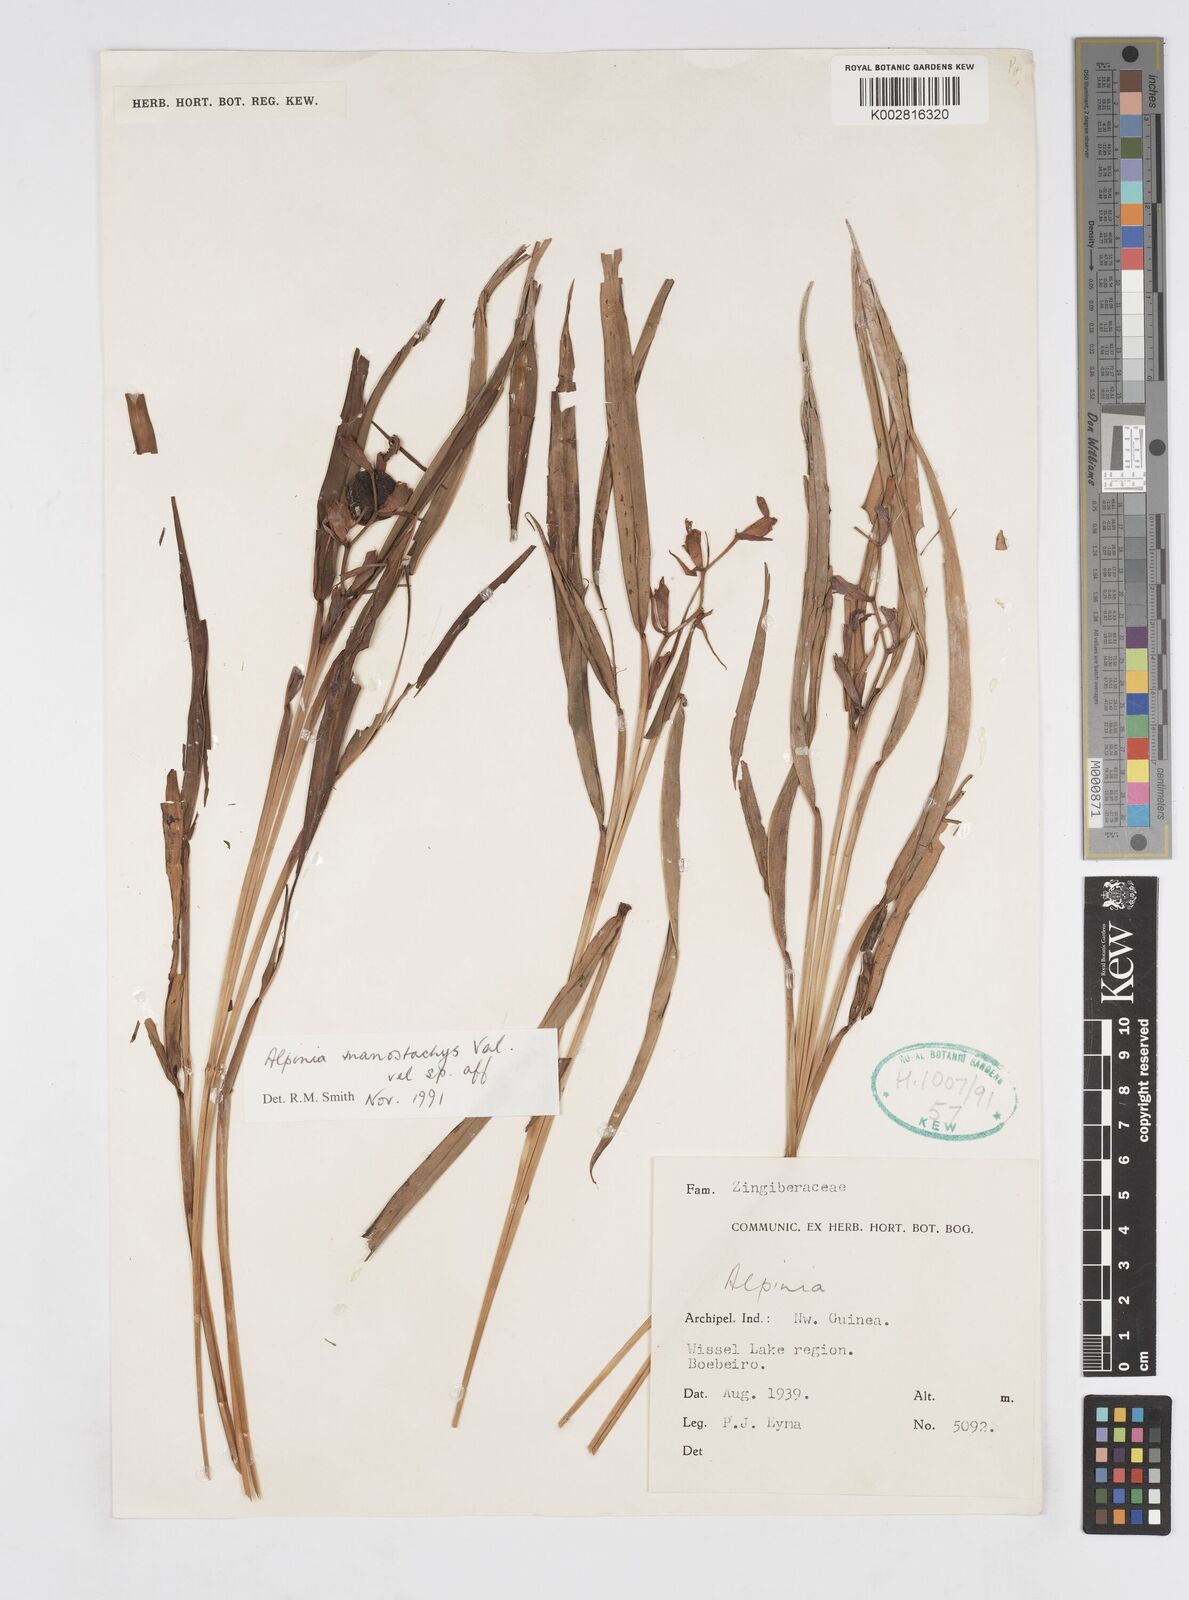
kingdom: Plantae
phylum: Tracheophyta
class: Liliopsida
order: Zingiberales
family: Zingiberaceae
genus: Alpinia
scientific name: Alpinia manostachys
